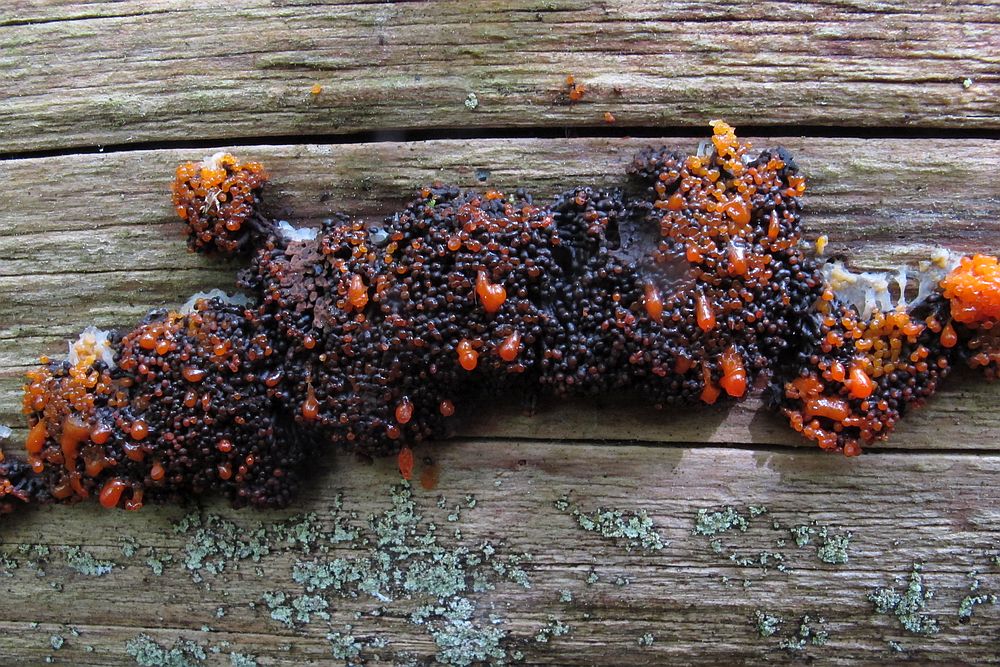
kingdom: Protozoa
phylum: Mycetozoa
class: Myxomycetes
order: Cribrariales
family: Tubiferaceae
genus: Tubifera
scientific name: Tubifera ferruginosa
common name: kanel-støvrør
